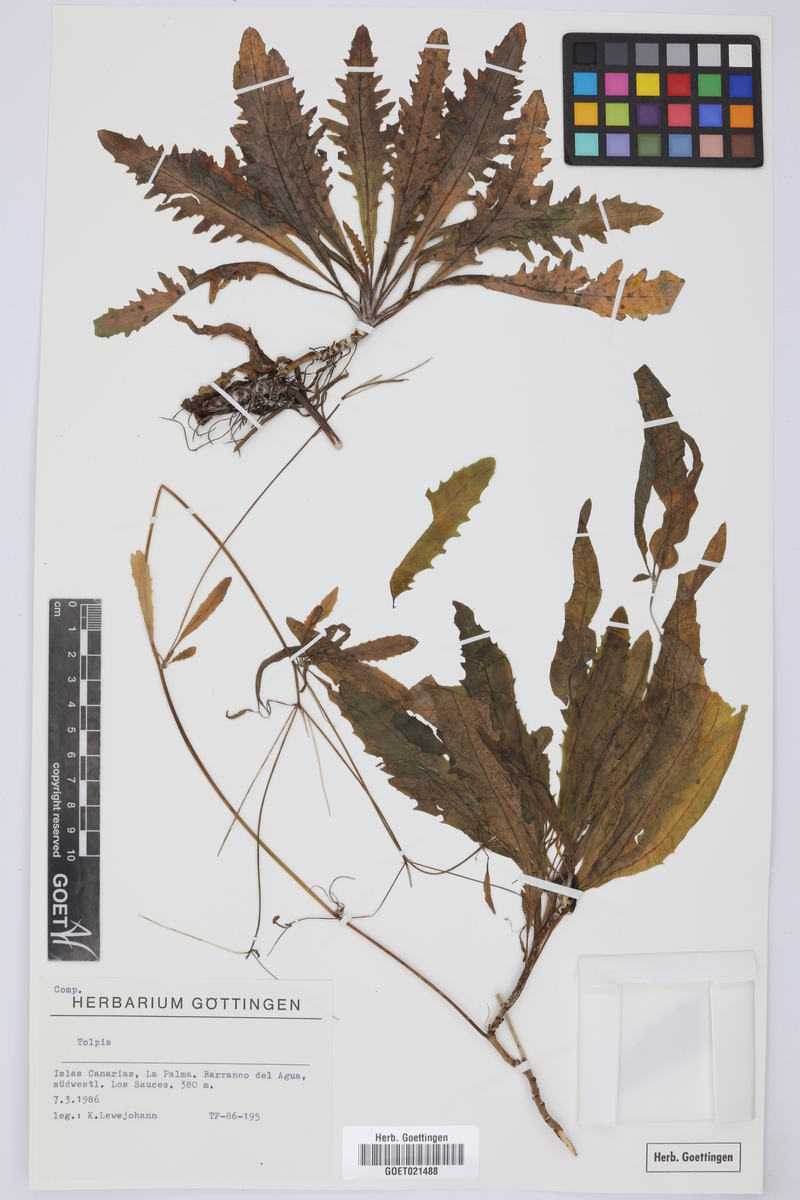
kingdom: Plantae
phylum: Tracheophyta
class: Magnoliopsida
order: Asterales
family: Asteraceae
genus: Tolpis
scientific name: Tolpis
